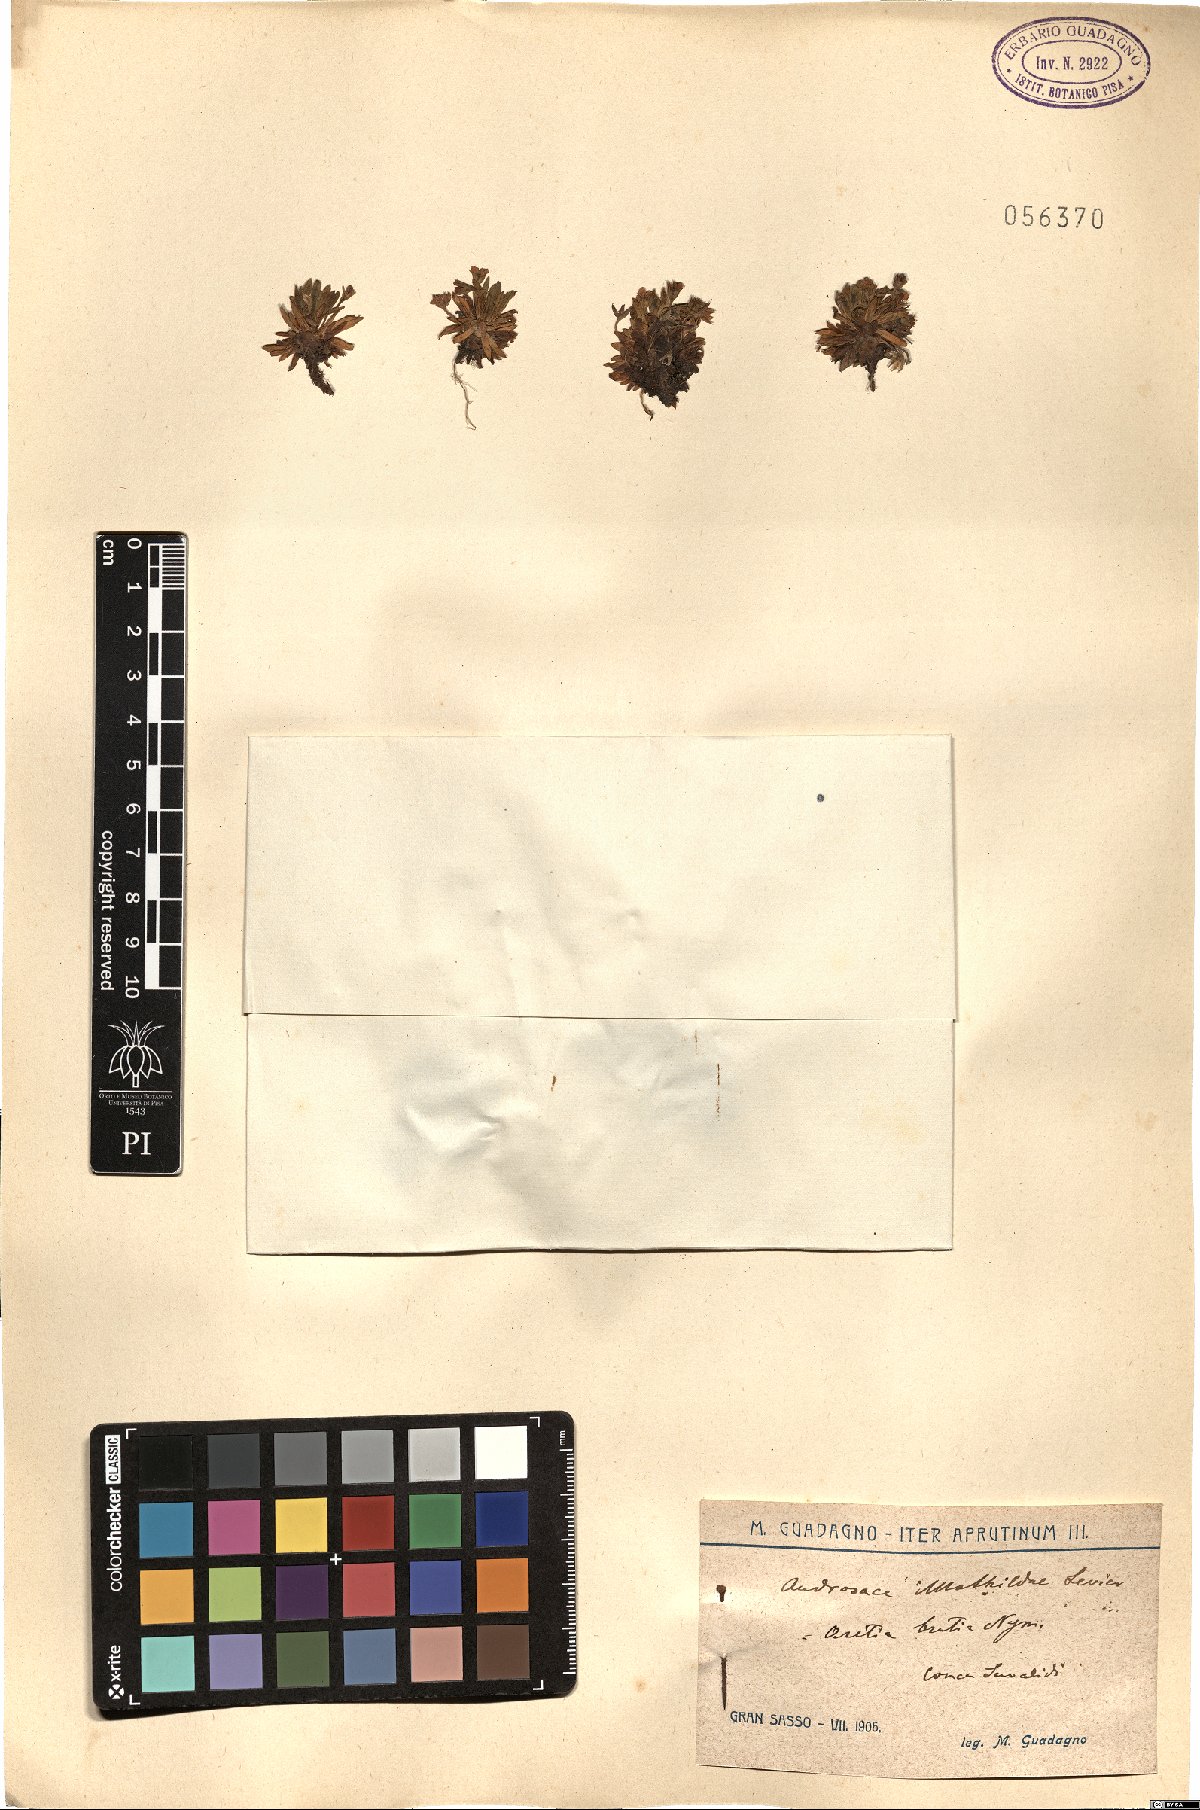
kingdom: Plantae
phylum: Tracheophyta
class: Magnoliopsida
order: Ericales
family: Primulaceae
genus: Androsace
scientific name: Androsace mathildae
